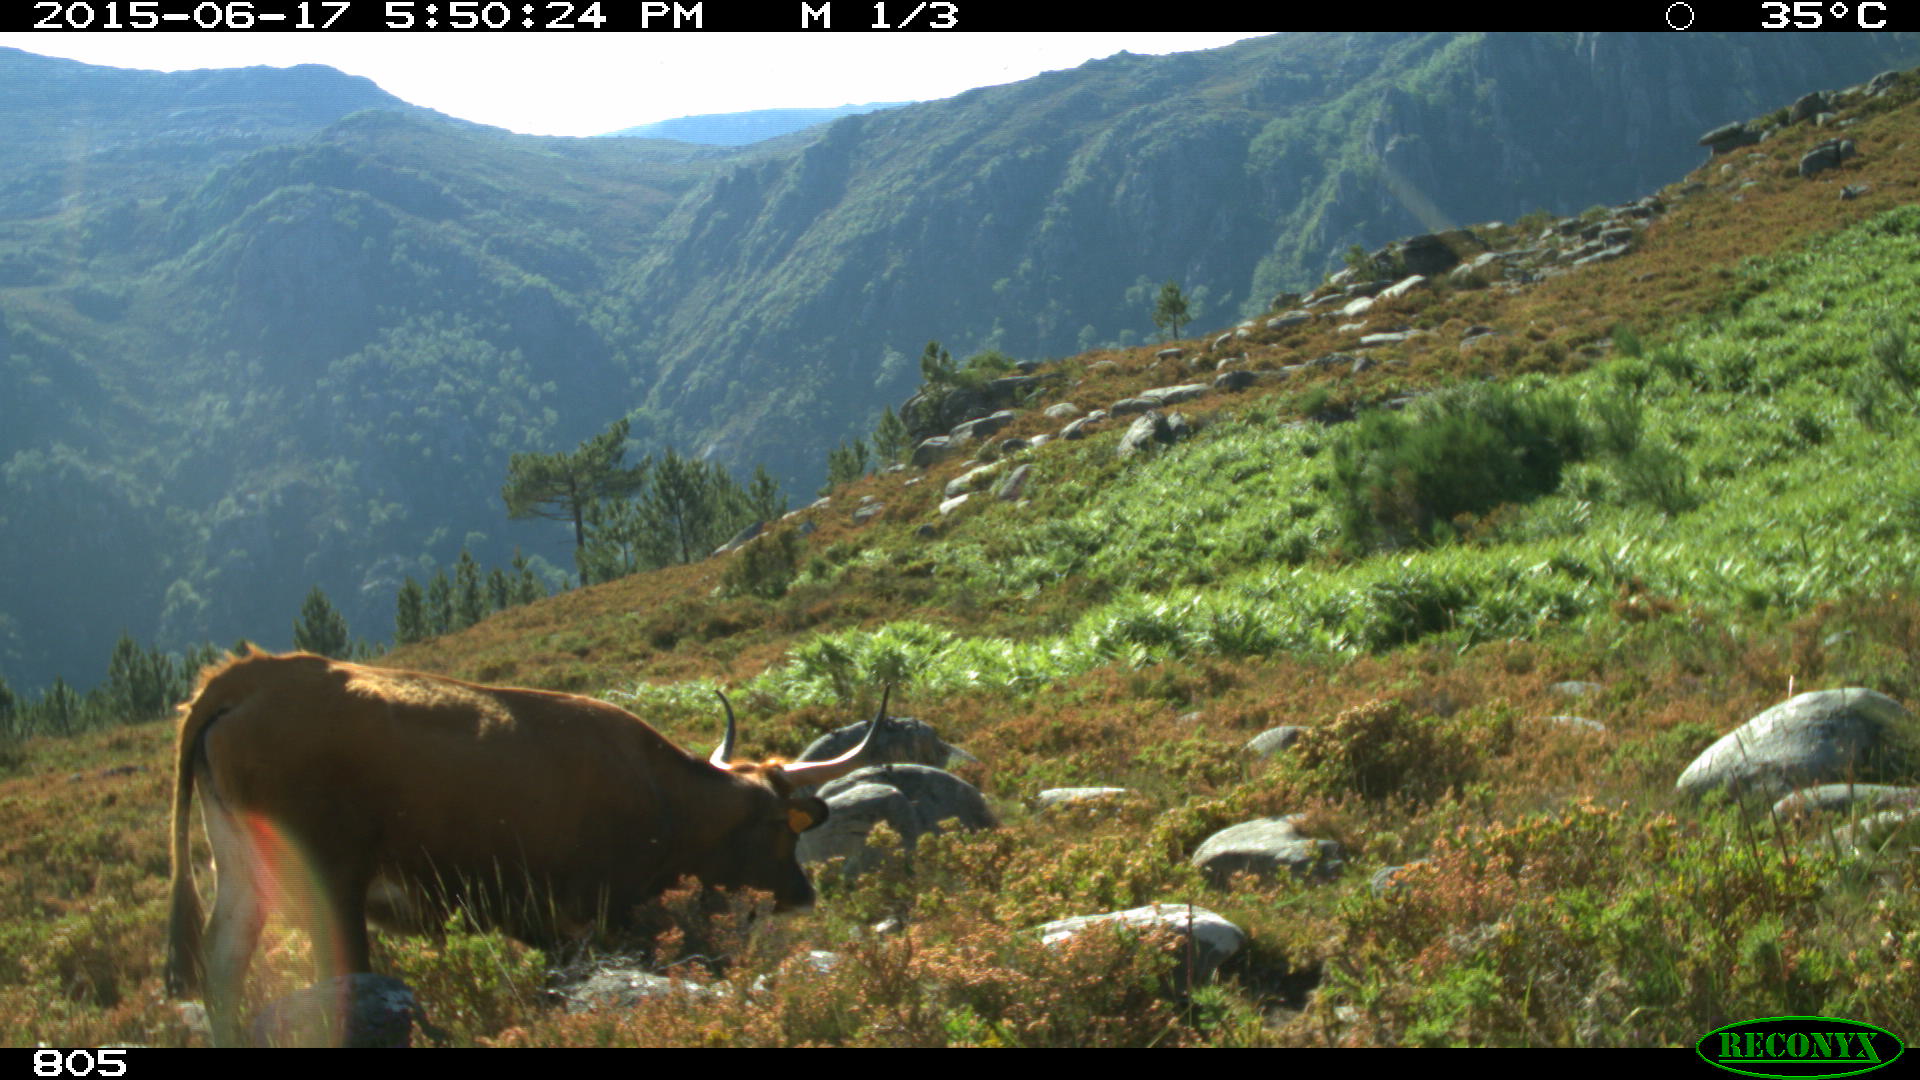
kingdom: Animalia
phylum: Chordata
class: Mammalia
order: Artiodactyla
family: Bovidae
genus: Bos
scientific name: Bos taurus
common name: Domesticated cattle
